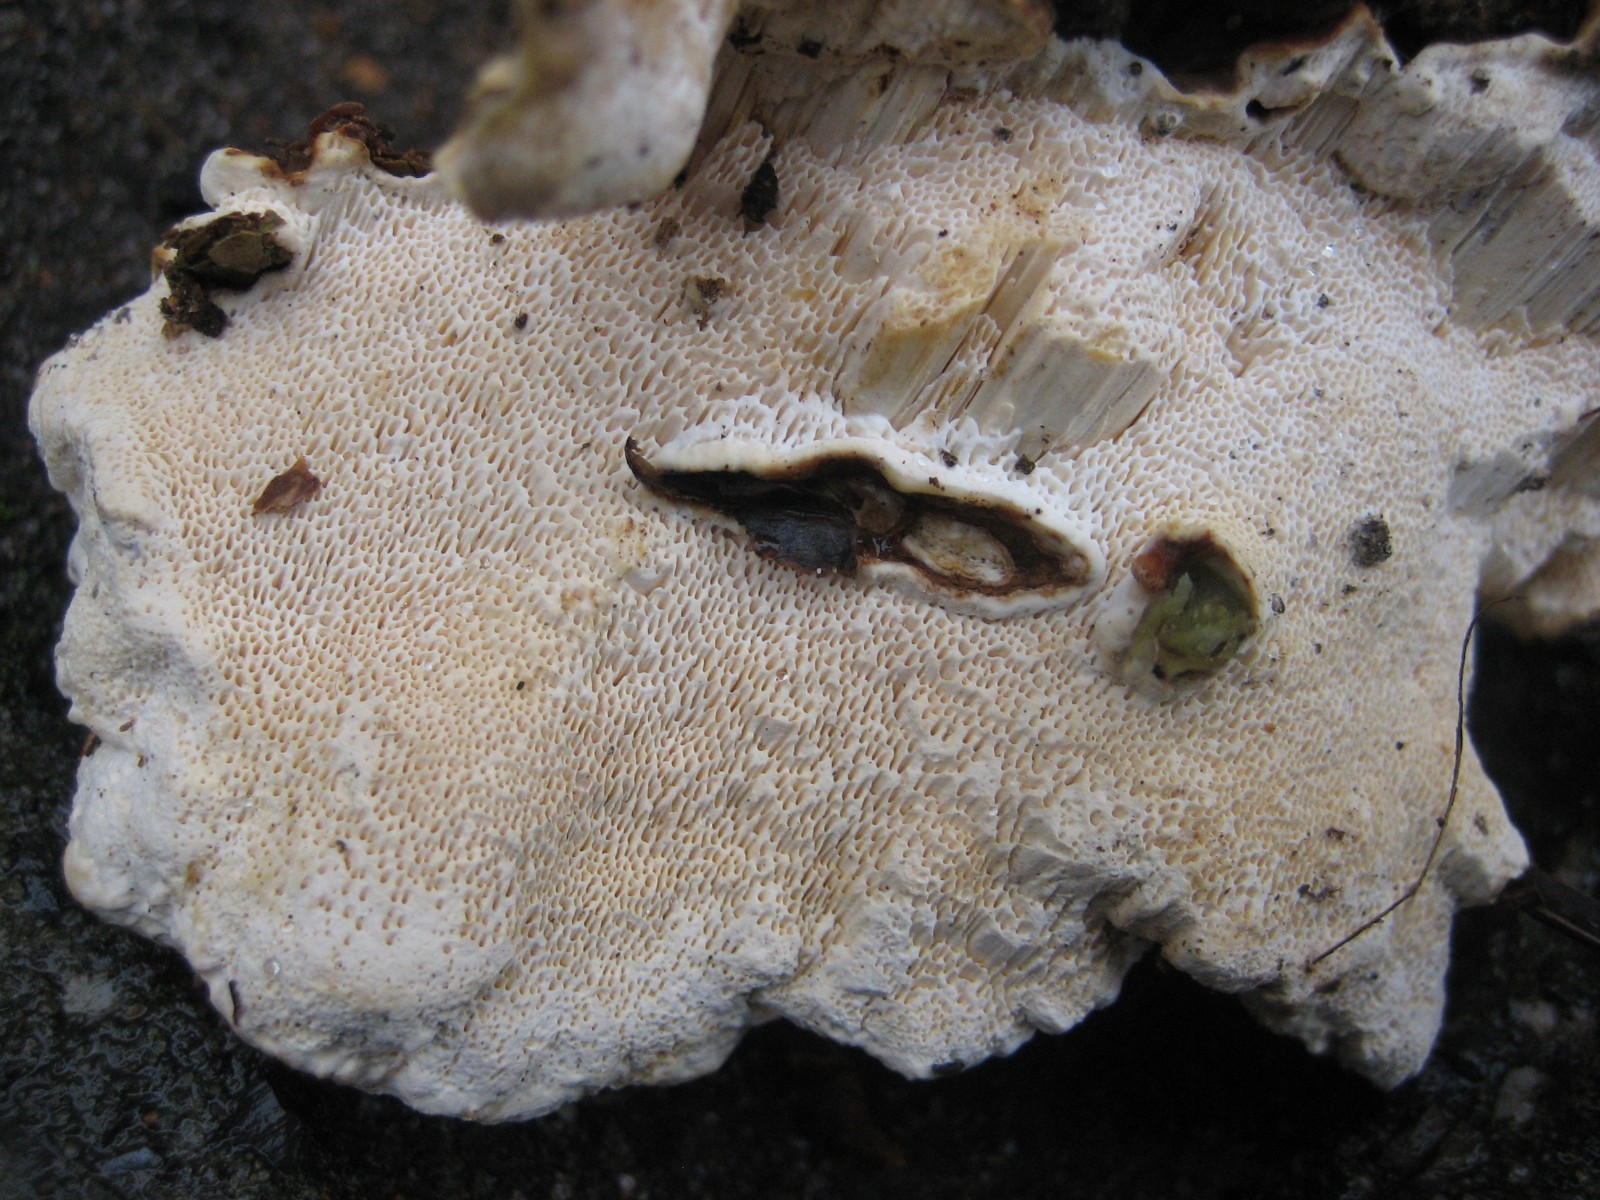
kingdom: Fungi
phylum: Basidiomycota
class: Agaricomycetes
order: Russulales
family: Bondarzewiaceae
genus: Heterobasidion
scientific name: Heterobasidion annosum
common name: almindelig rodfordærver
